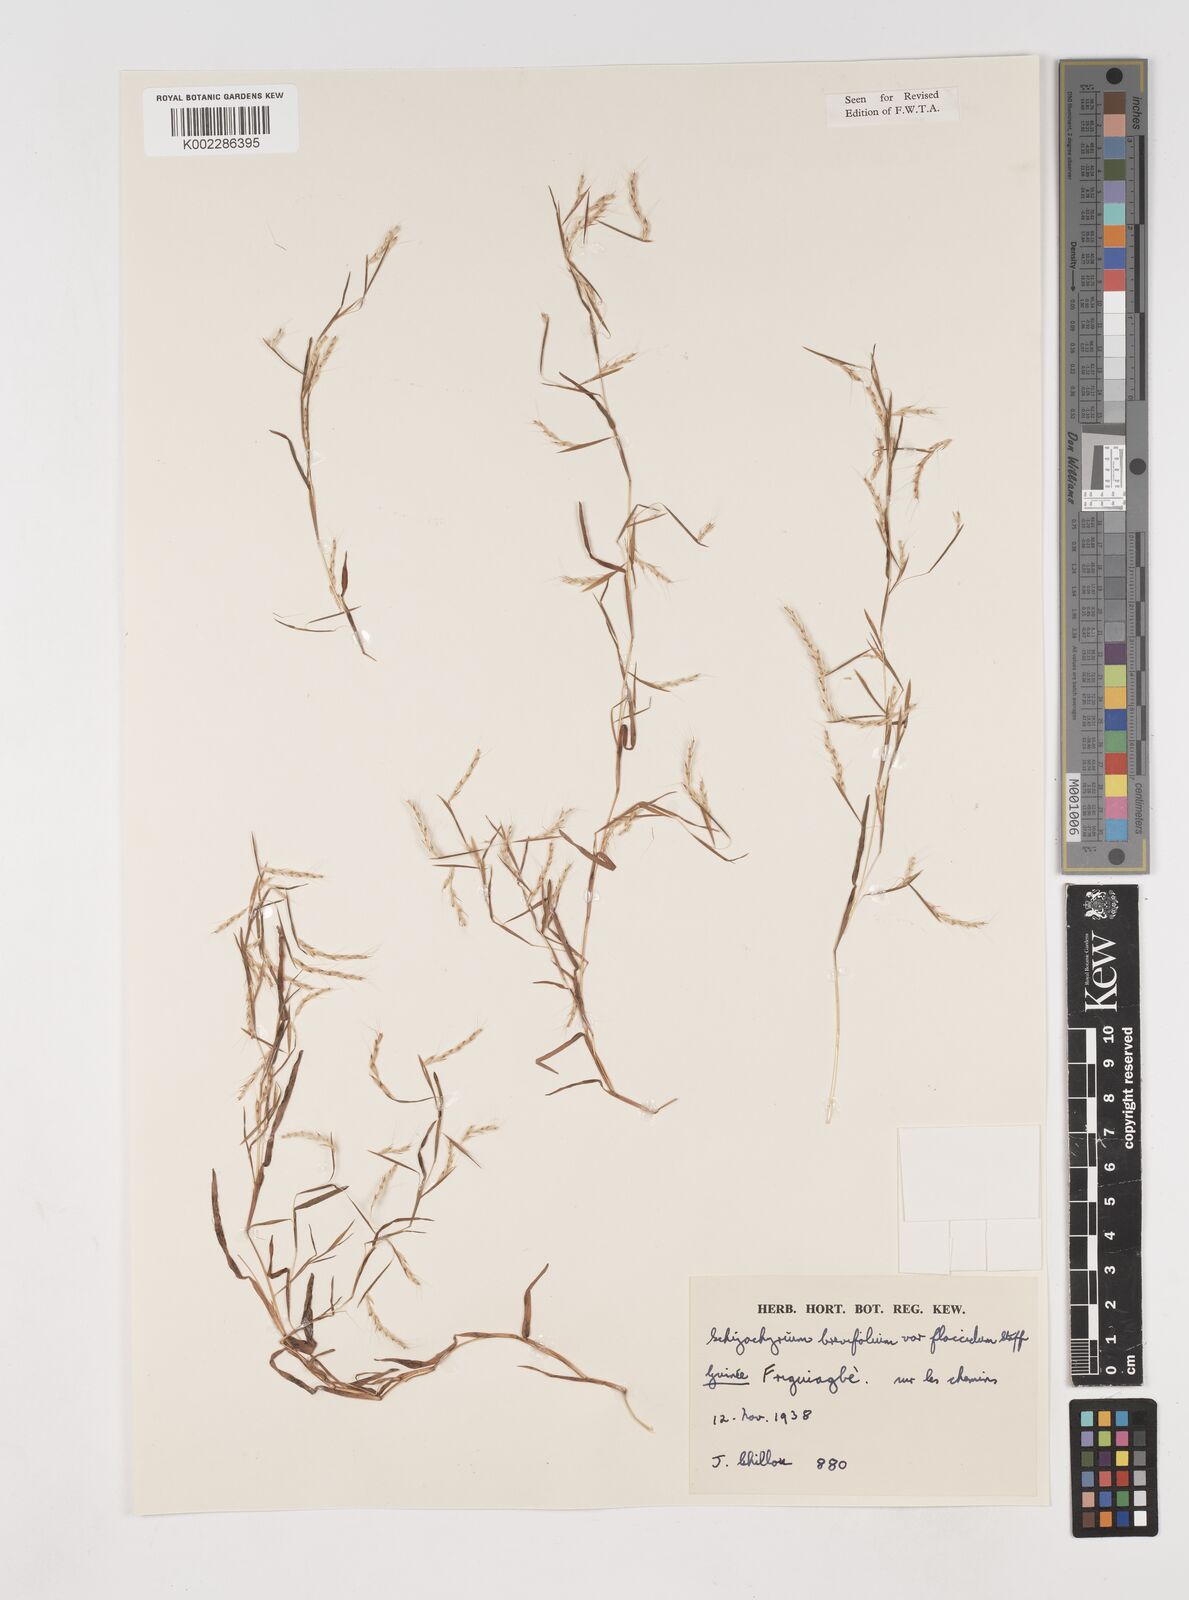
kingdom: Plantae
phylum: Tracheophyta
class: Liliopsida
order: Poales
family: Poaceae
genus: Schizachyrium
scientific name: Schizachyrium brevifolium
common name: Serillo dulce
